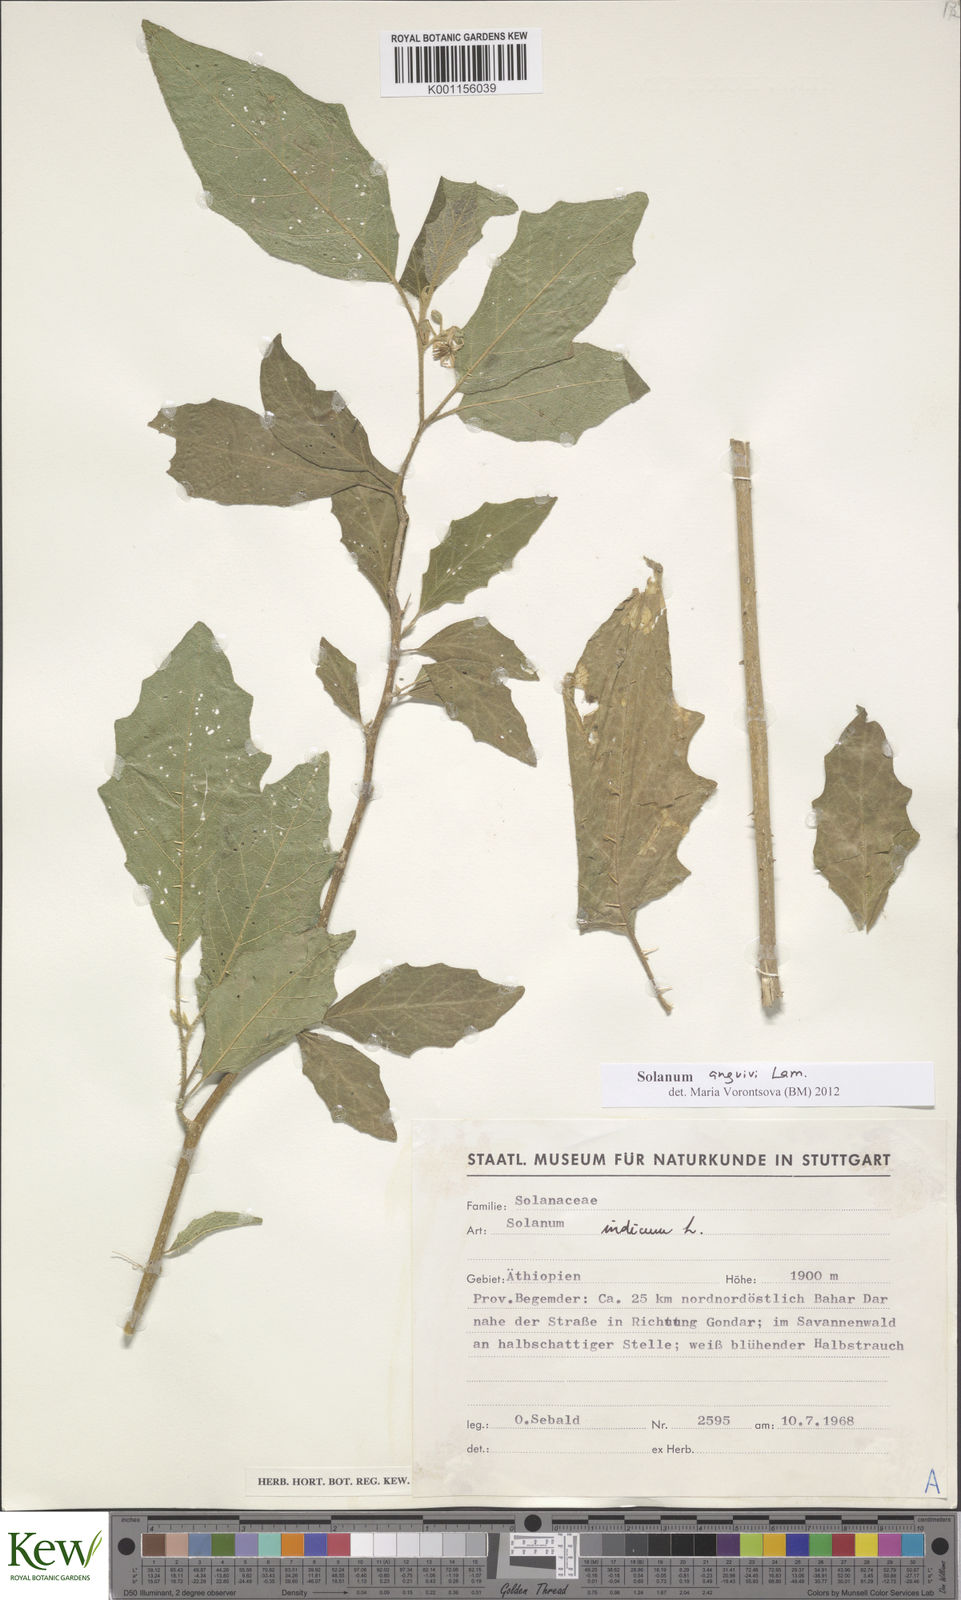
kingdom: Plantae
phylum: Tracheophyta
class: Magnoliopsida
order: Solanales
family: Solanaceae
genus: Solanum
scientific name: Solanum anguivi
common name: Forest bitterberry
